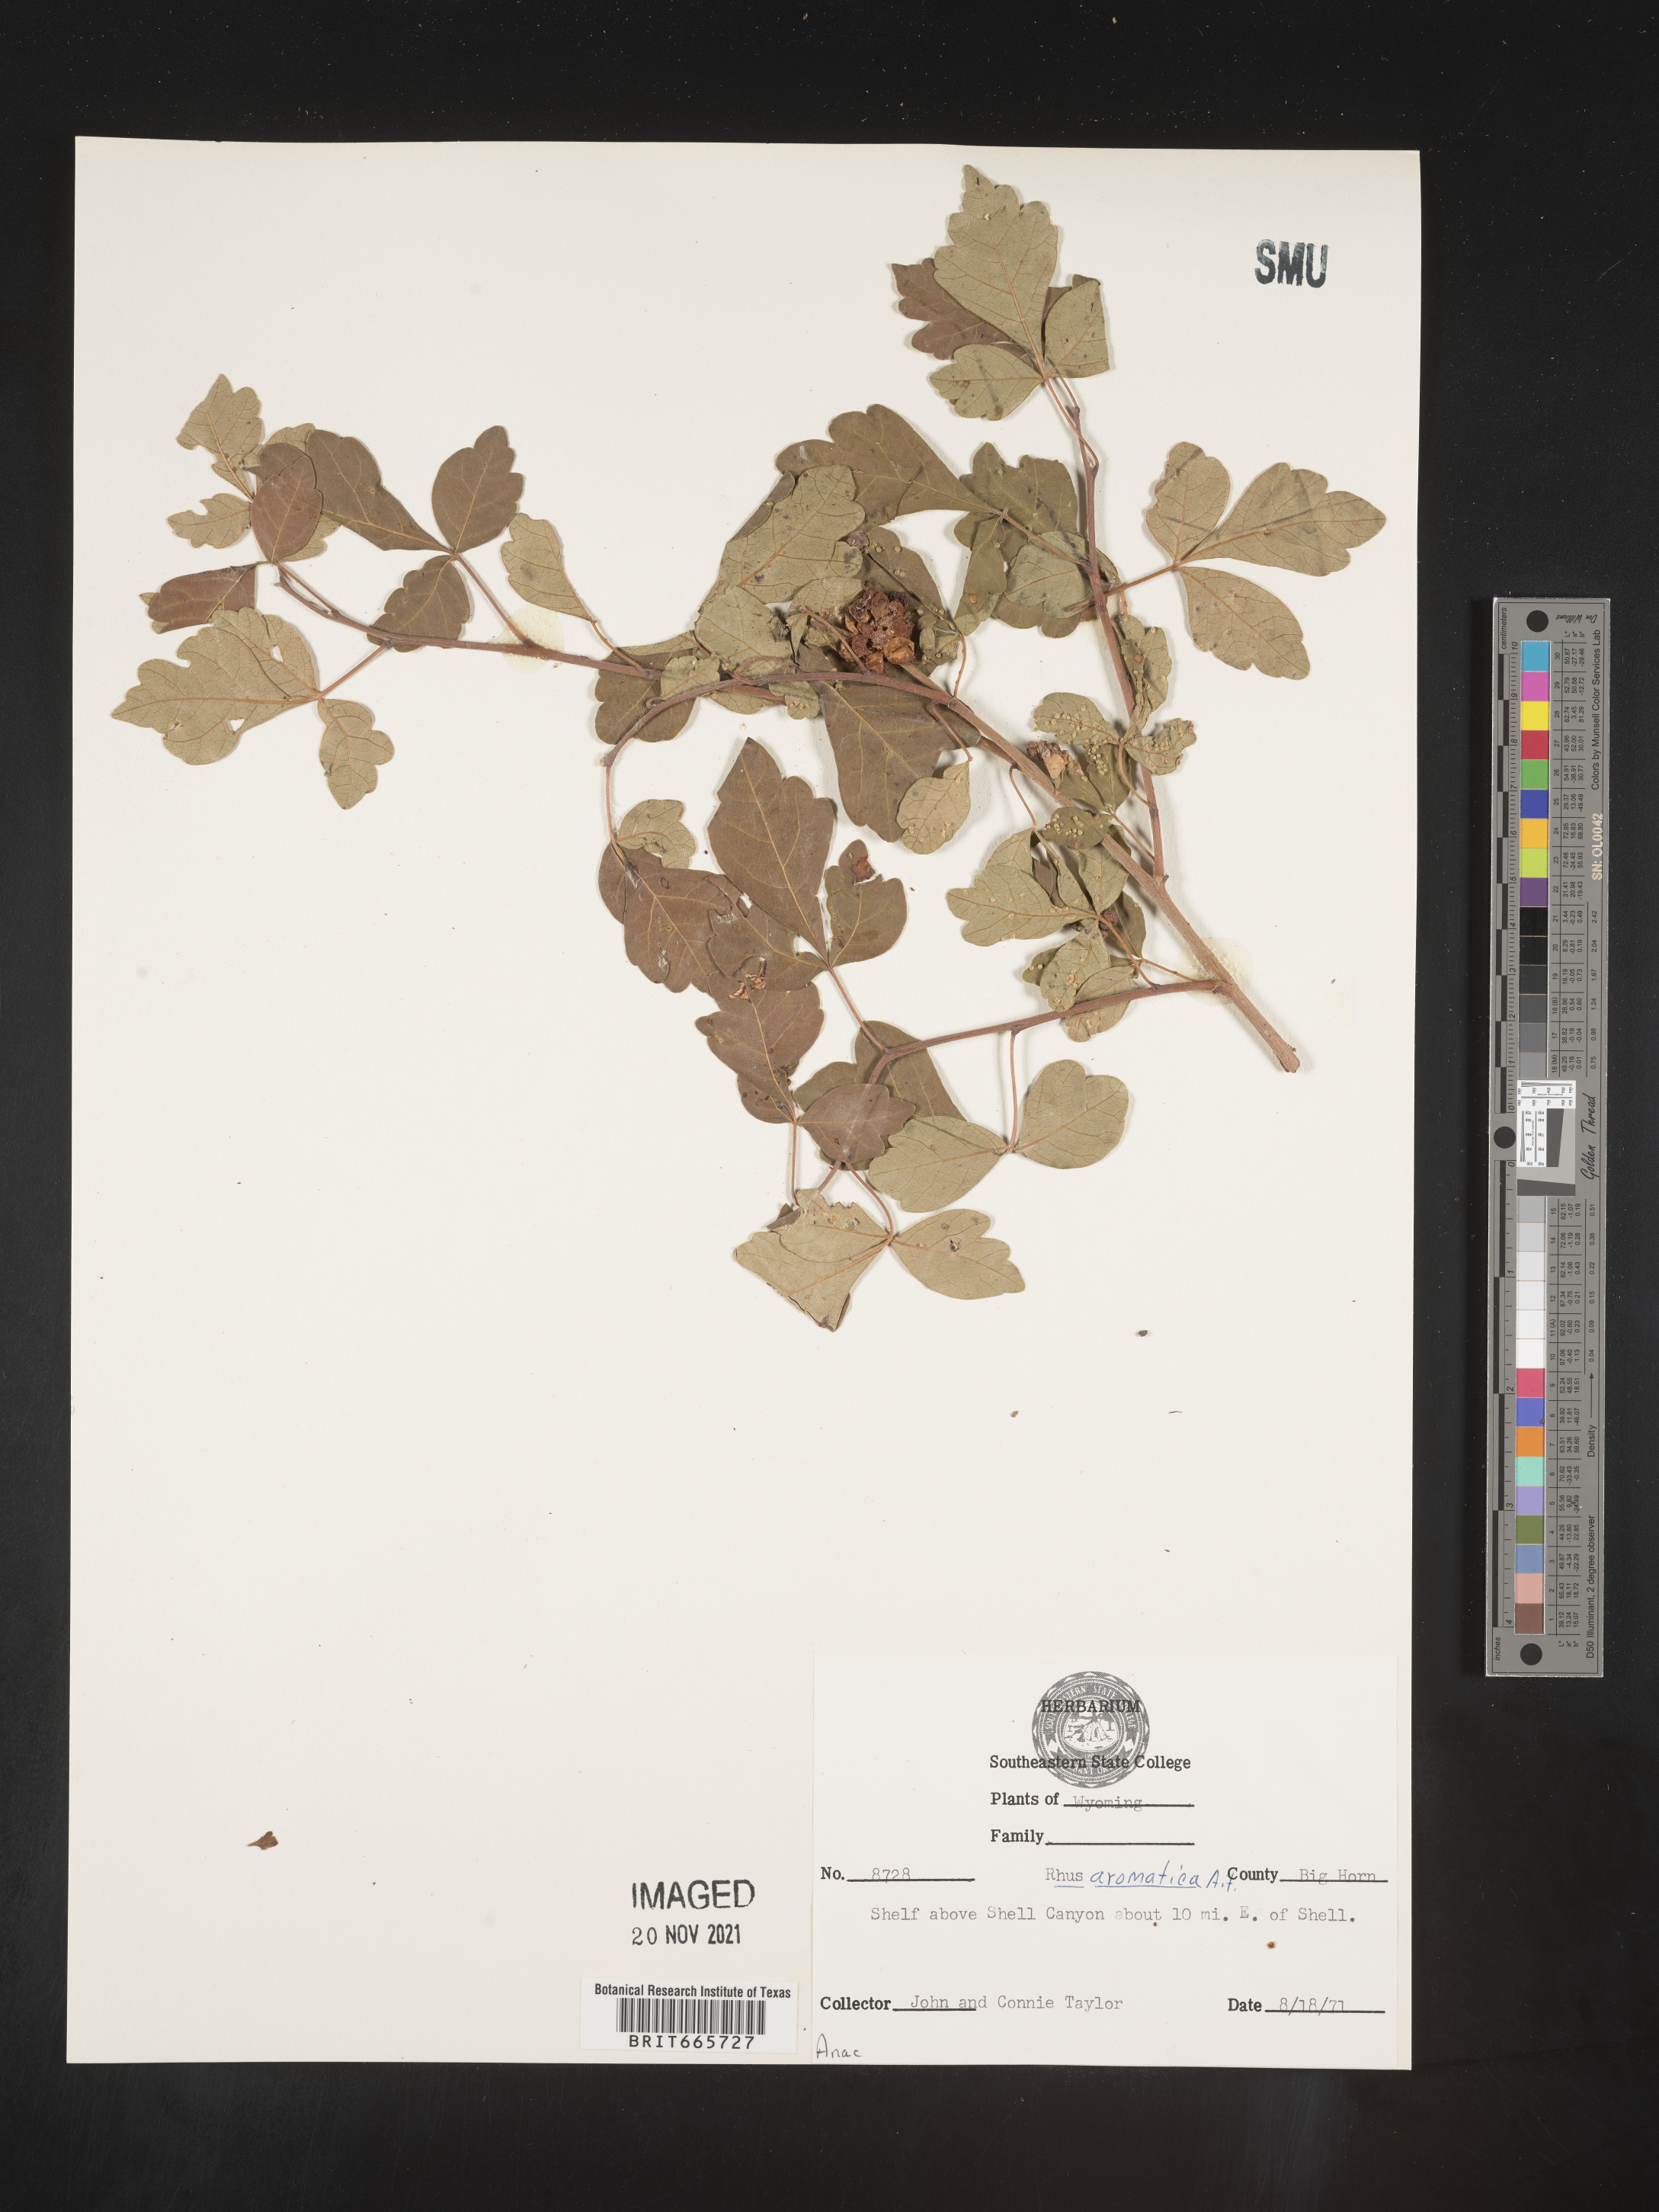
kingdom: Plantae
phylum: Tracheophyta
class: Magnoliopsida
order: Sapindales
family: Anacardiaceae
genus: Rhus
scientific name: Rhus aromatica
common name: Aromatic sumac
